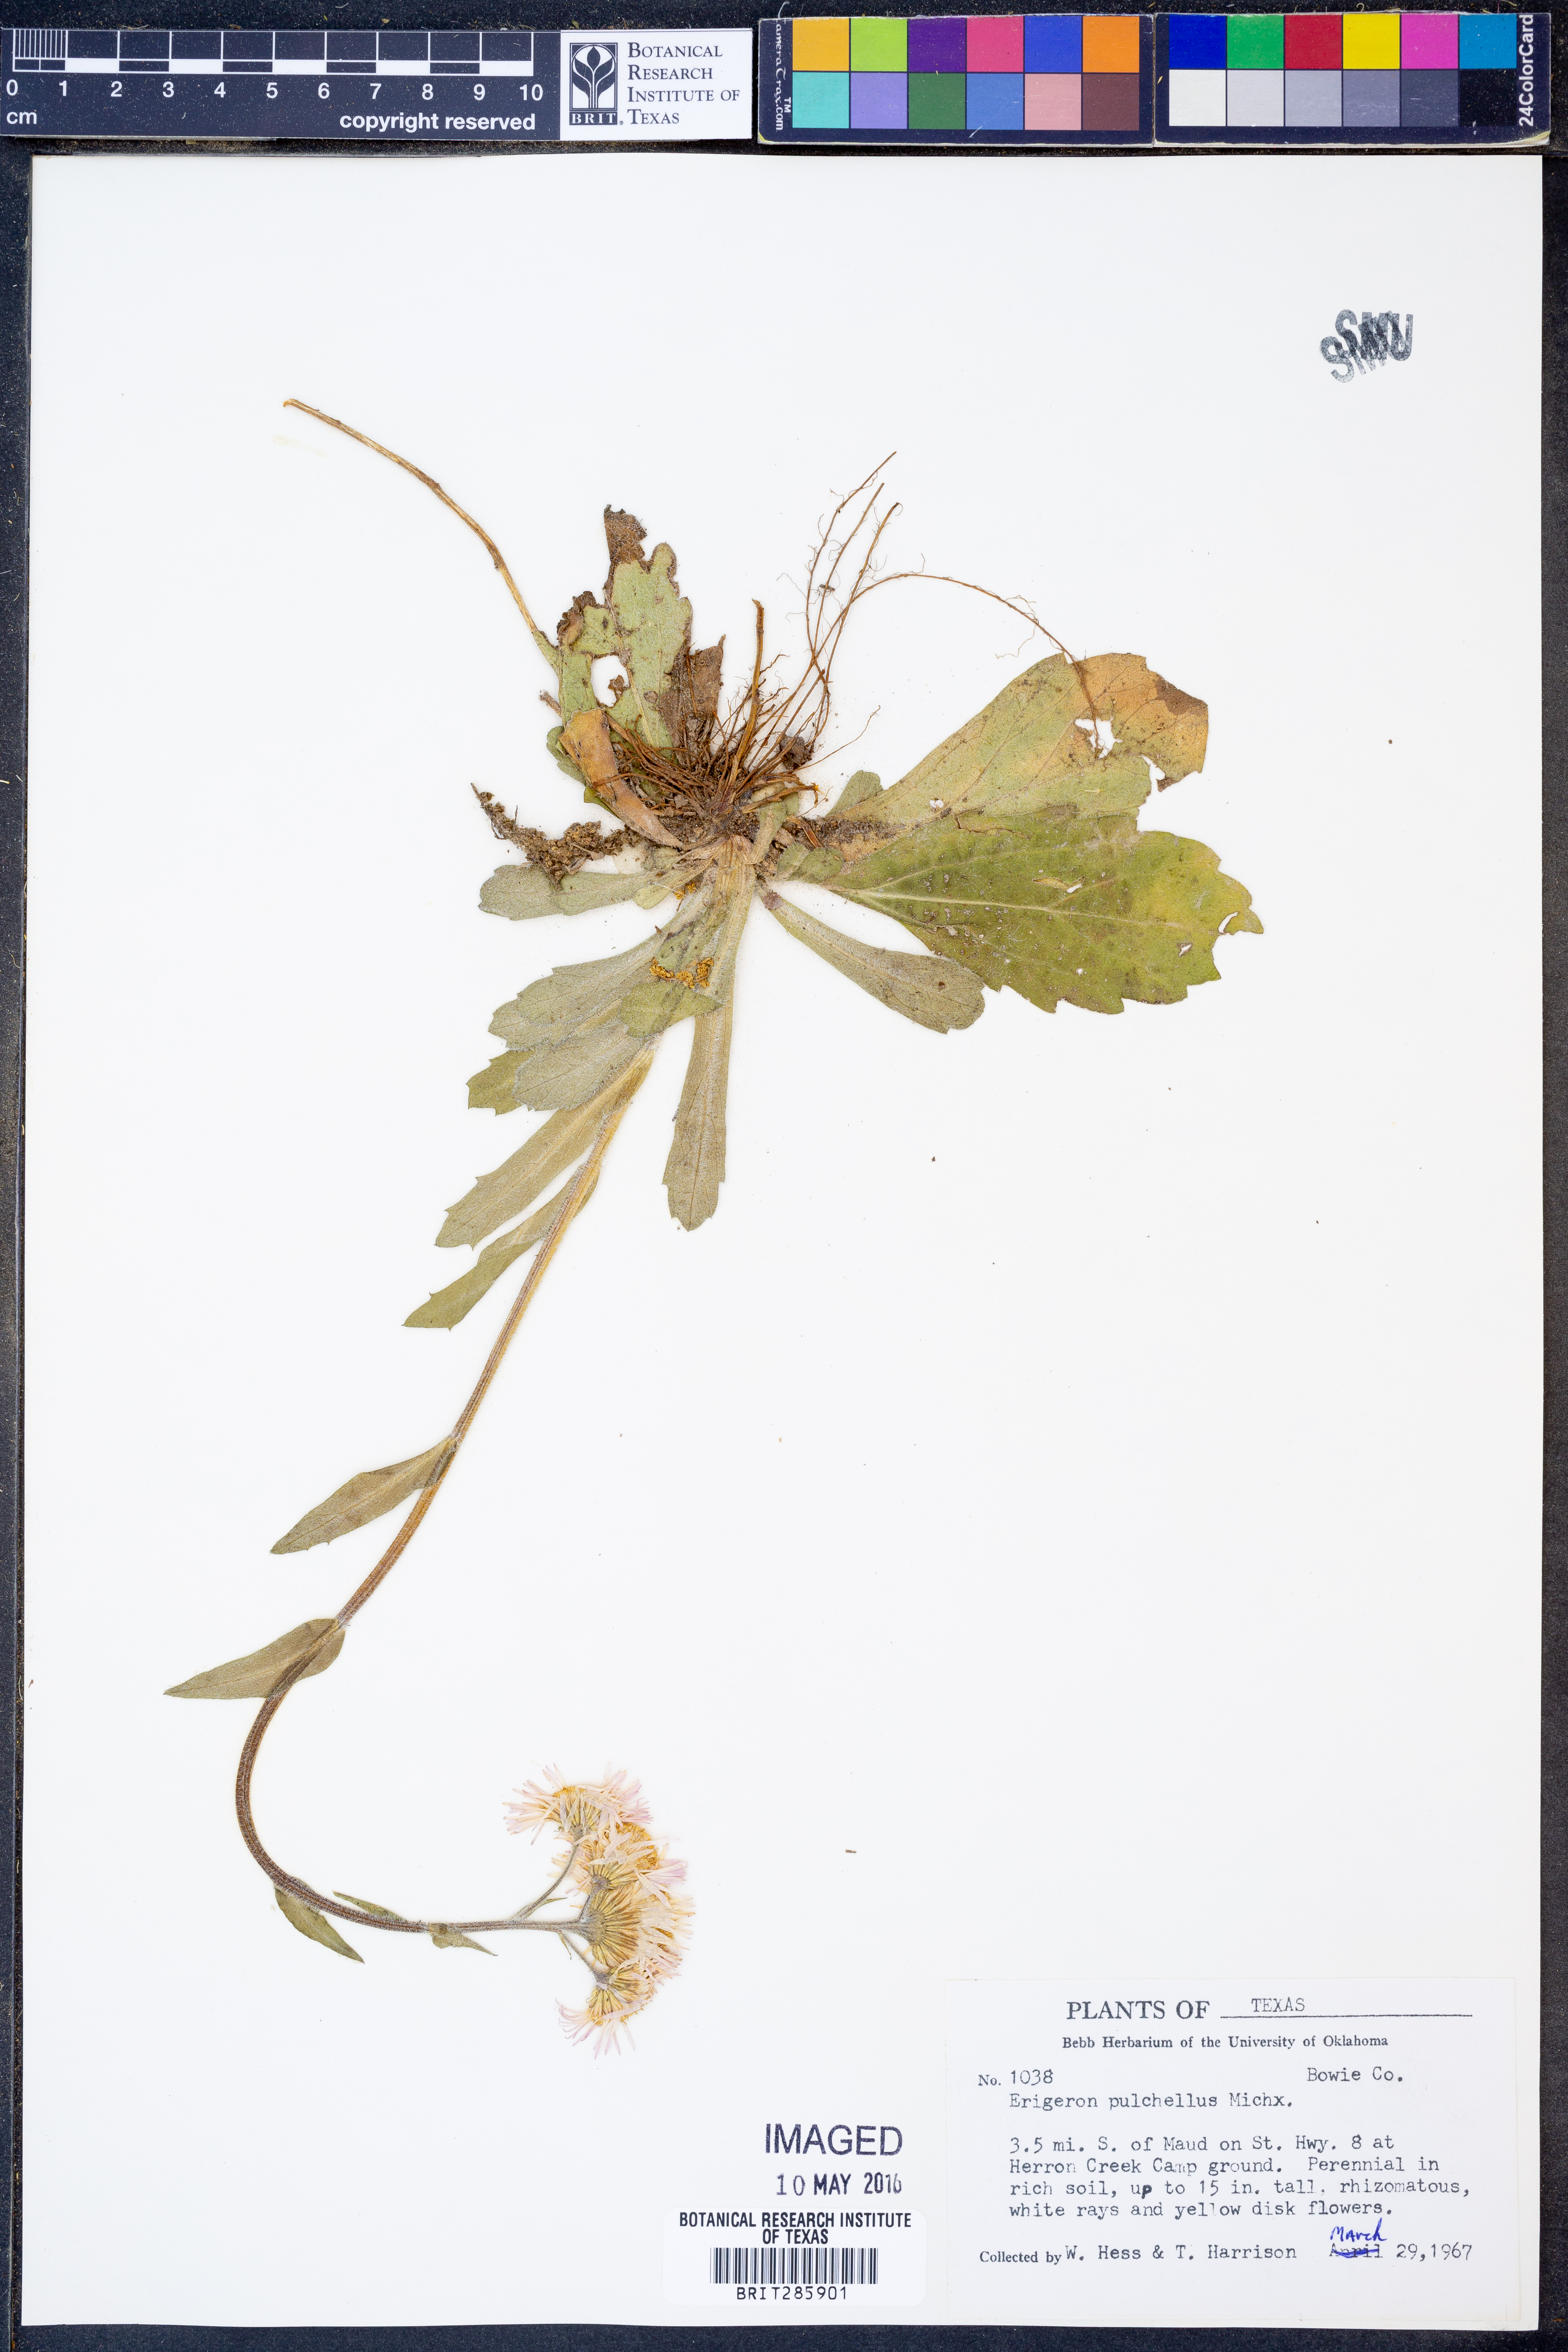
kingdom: Plantae
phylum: Tracheophyta
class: Magnoliopsida
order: Asterales
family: Asteraceae
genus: Erigeron
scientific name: Erigeron pulchellus
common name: Hairy fleabane
